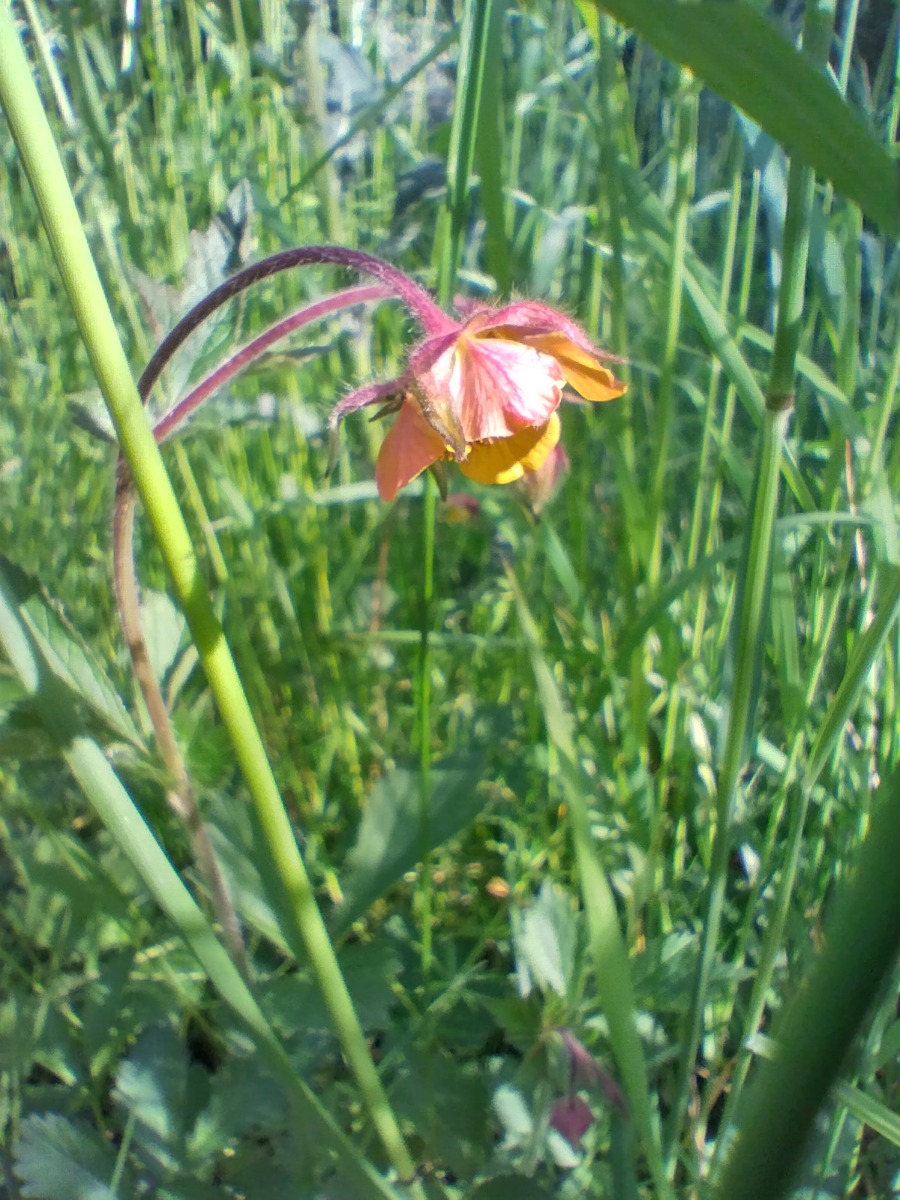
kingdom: Plantae
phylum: Tracheophyta
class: Magnoliopsida
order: Rosales
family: Rosaceae
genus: Geum
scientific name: Geum rivale
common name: Eng-nellikerod
